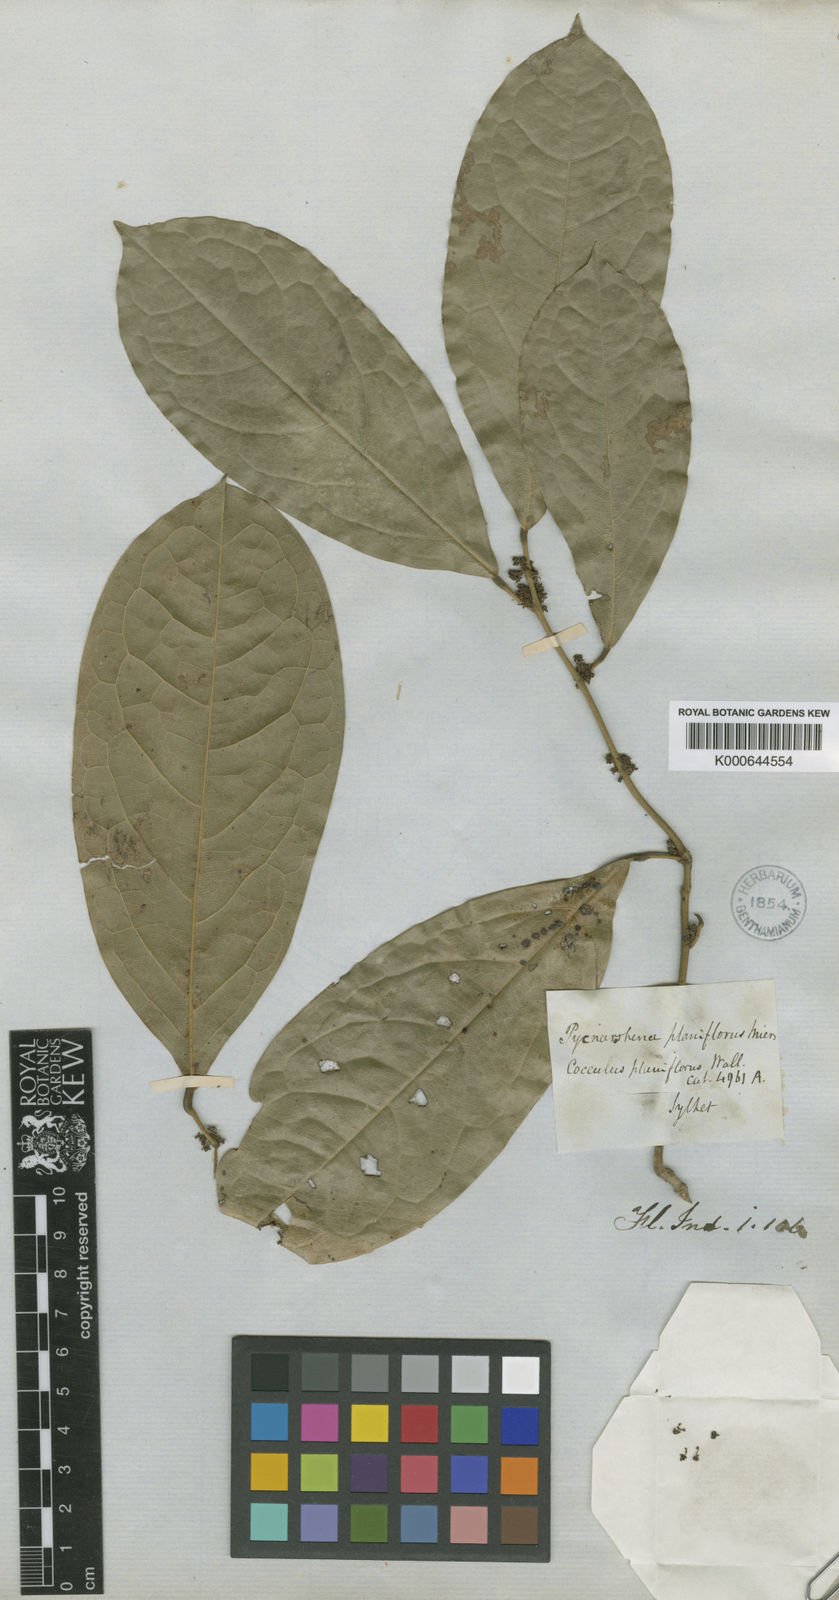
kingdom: Plantae
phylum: Tracheophyta
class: Magnoliopsida
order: Ranunculales
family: Menispermaceae
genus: Pycnarrhena
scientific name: Pycnarrhena
